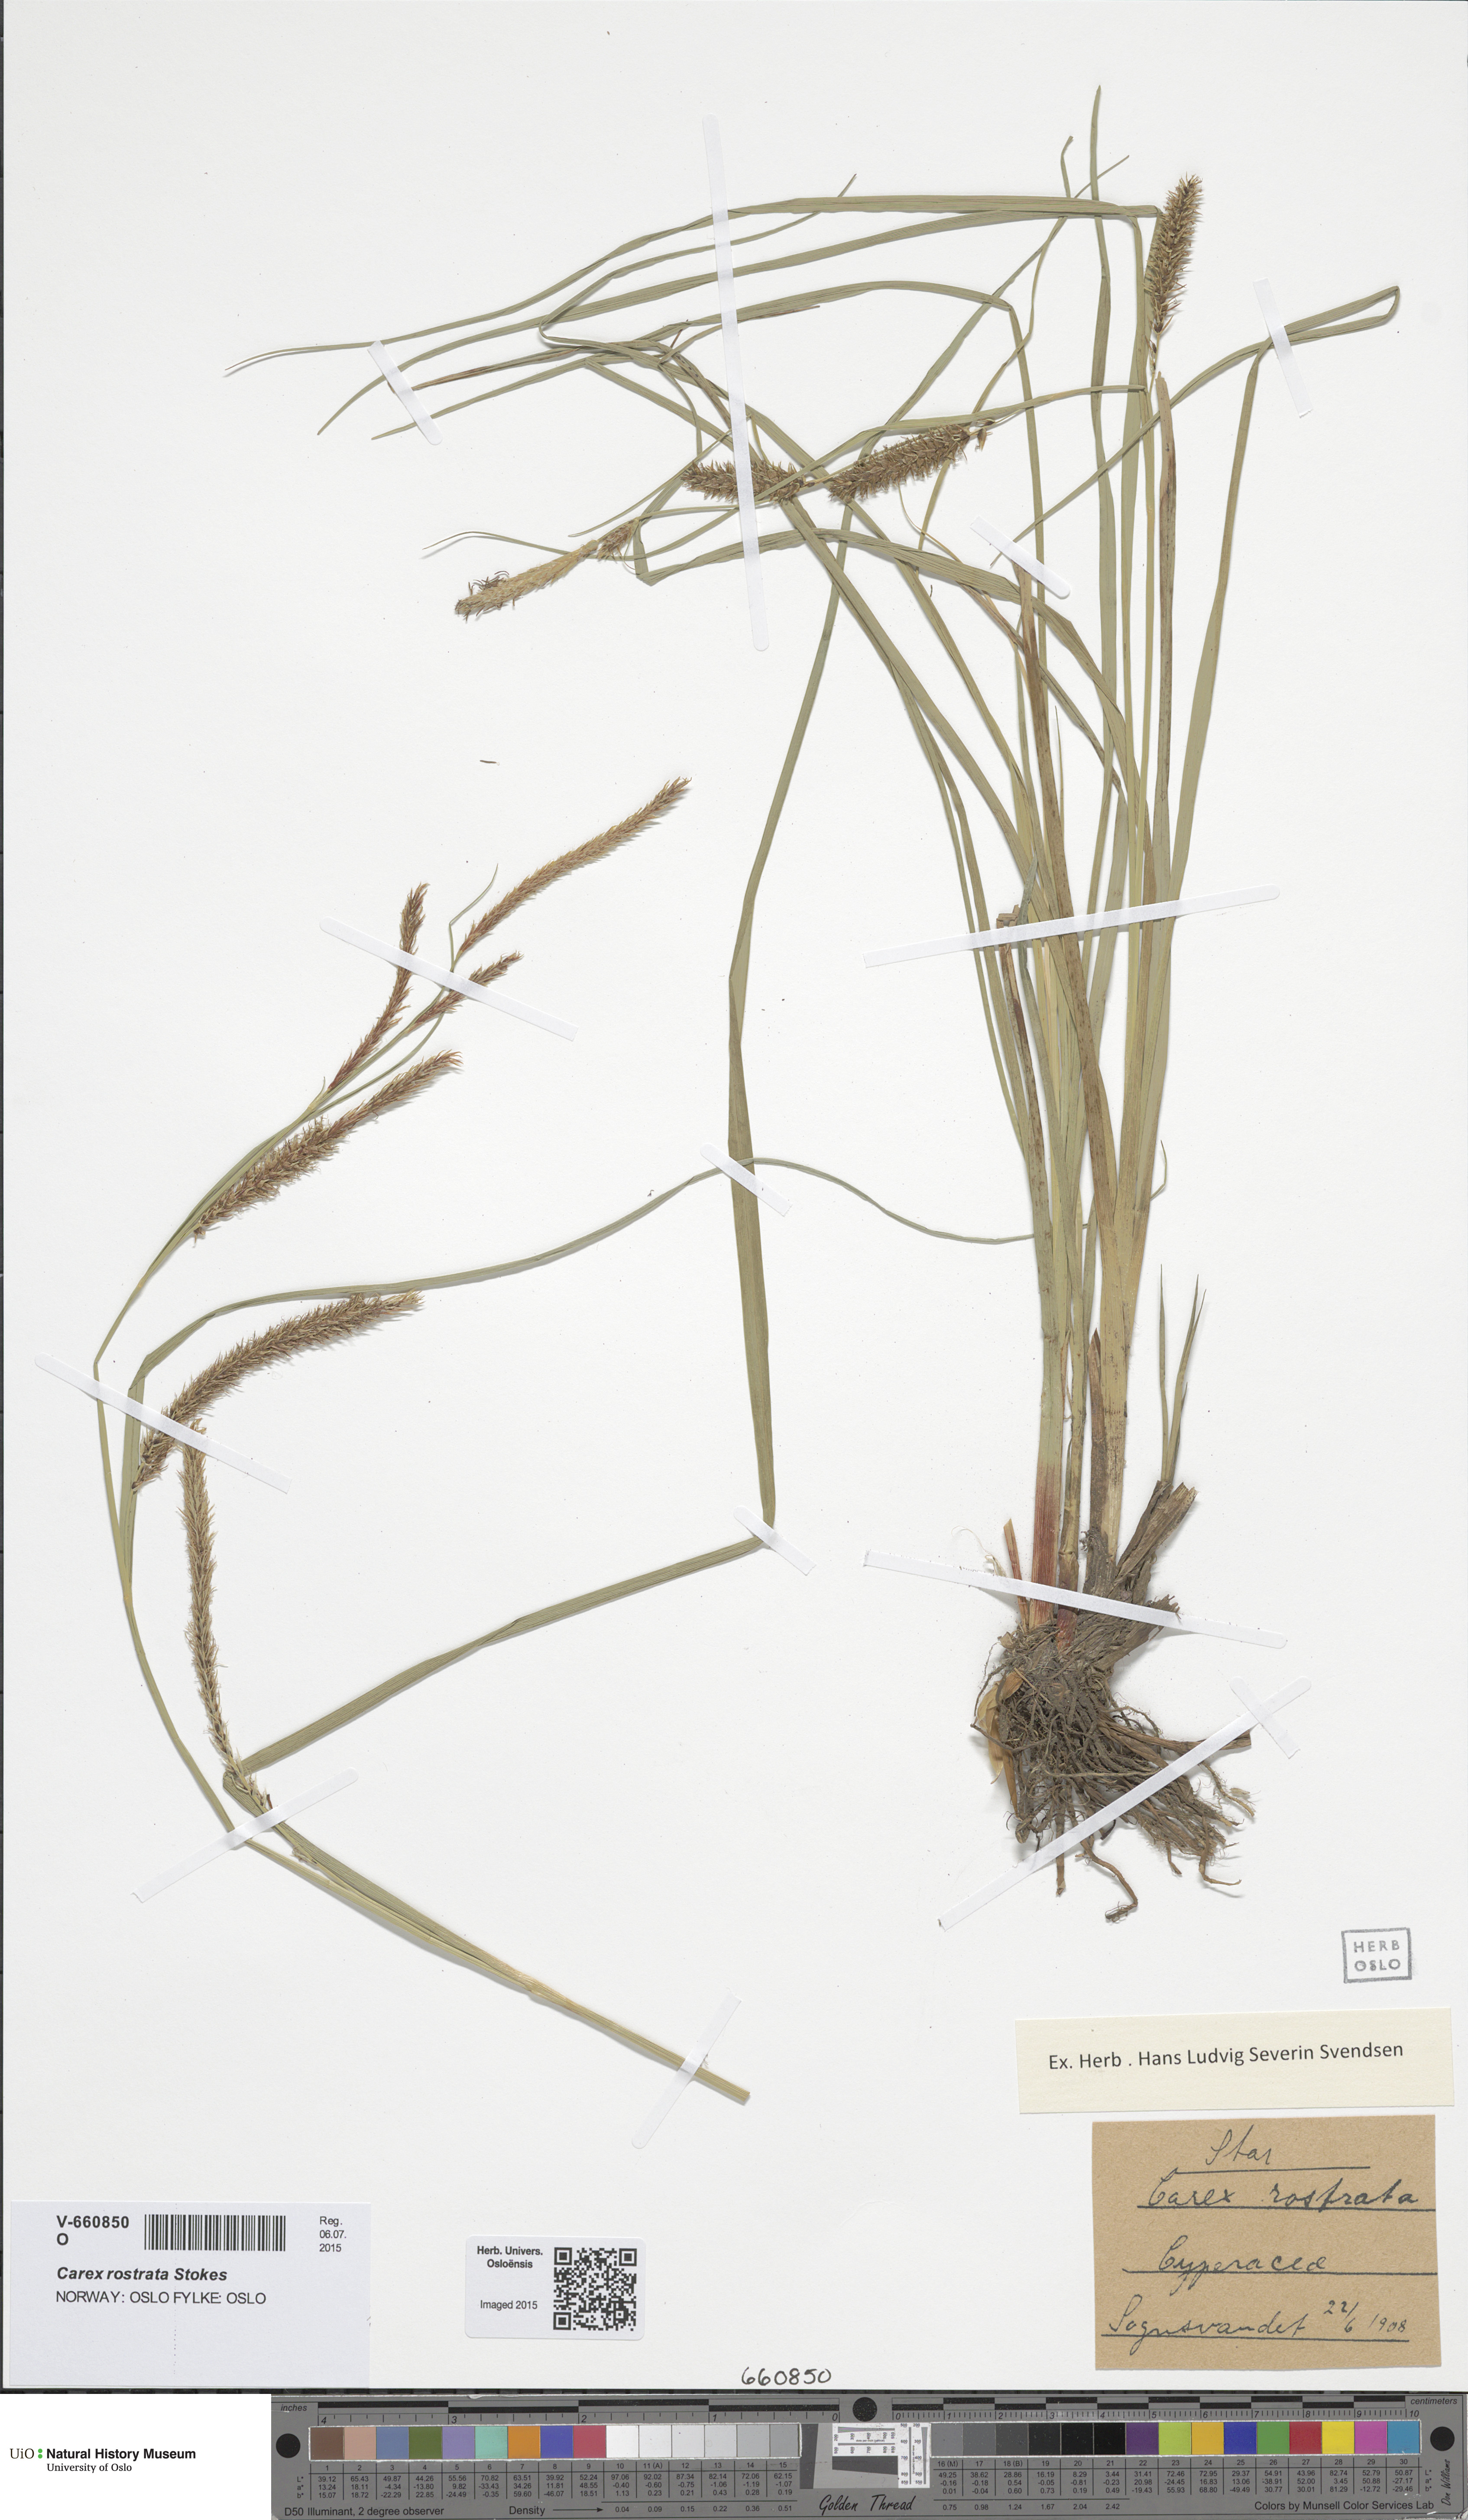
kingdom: Plantae
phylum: Tracheophyta
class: Liliopsida
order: Poales
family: Cyperaceae
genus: Carex
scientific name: Carex rostrata
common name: Bottle sedge
